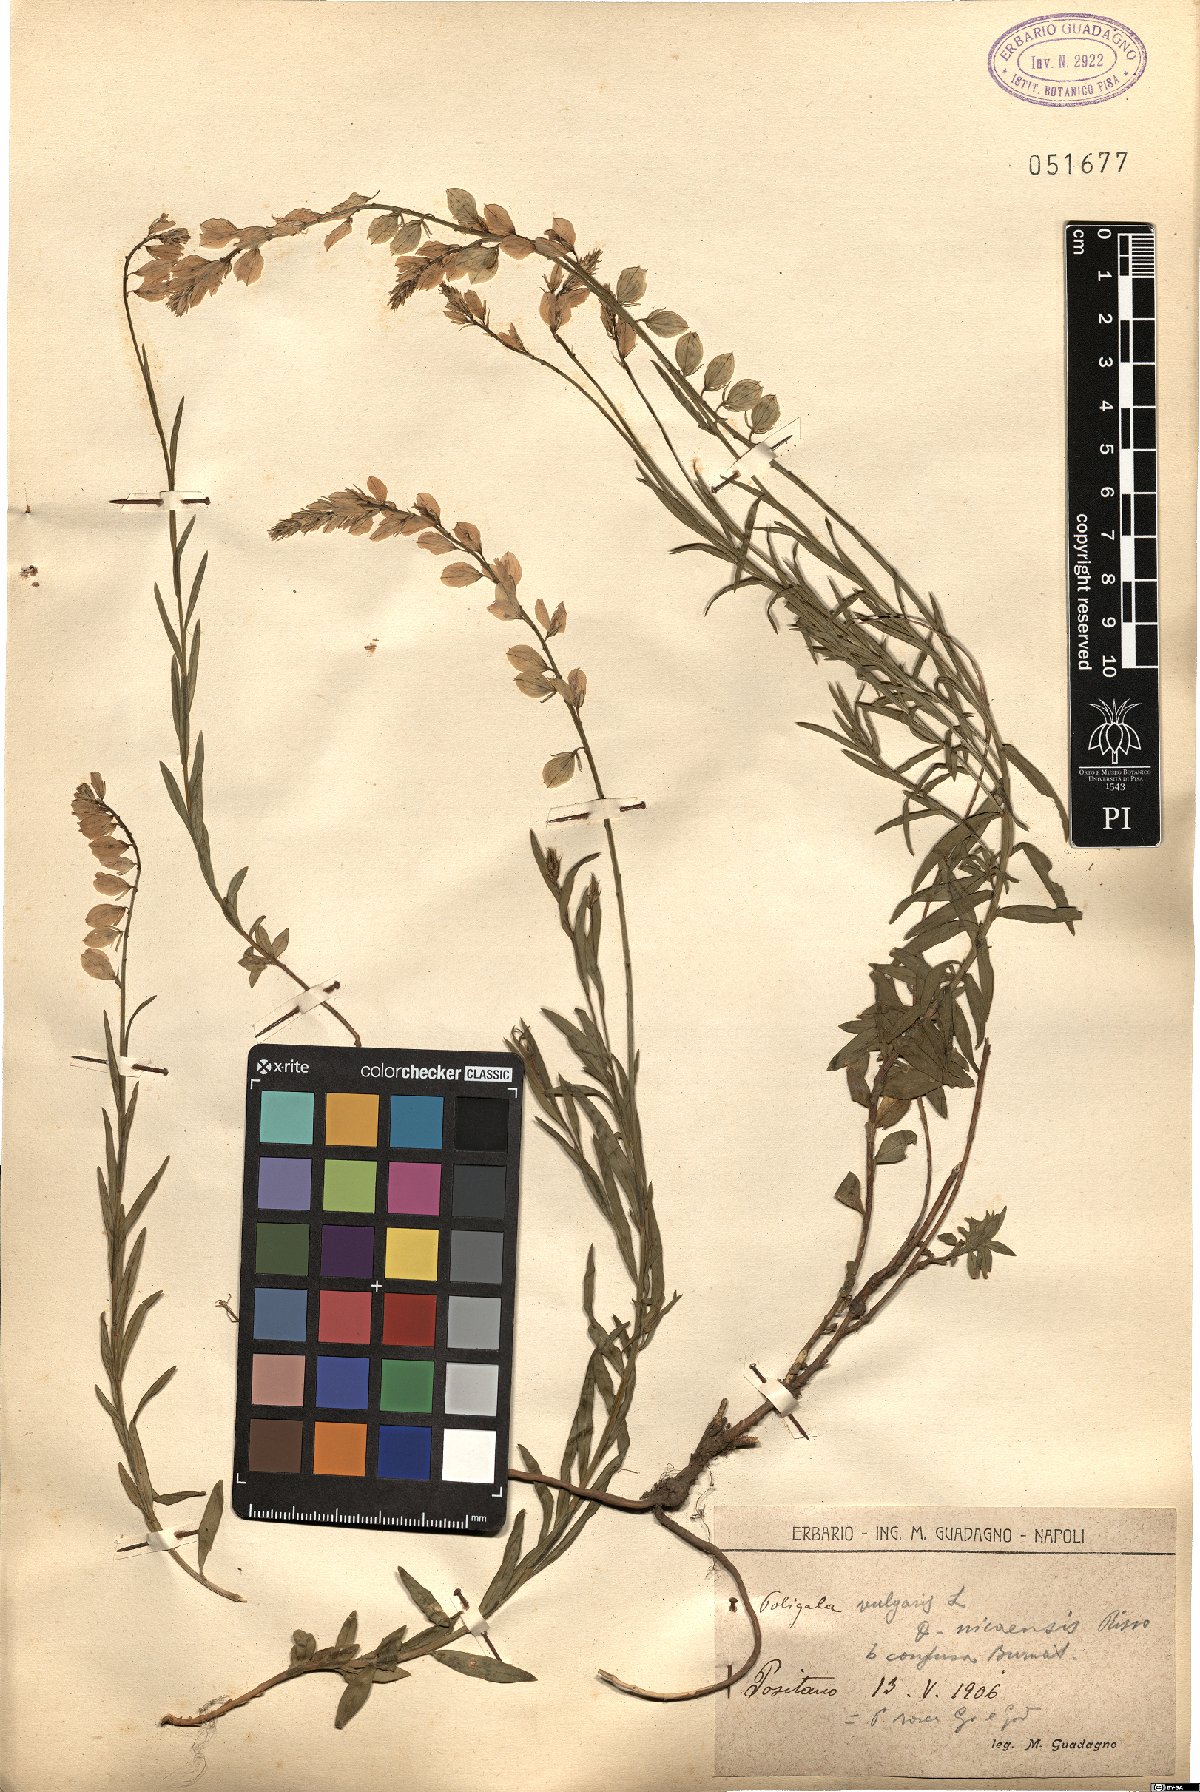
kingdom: Plantae
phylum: Tracheophyta
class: Magnoliopsida
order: Fabales
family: Polygalaceae
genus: Polygala
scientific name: Polygala rosea
